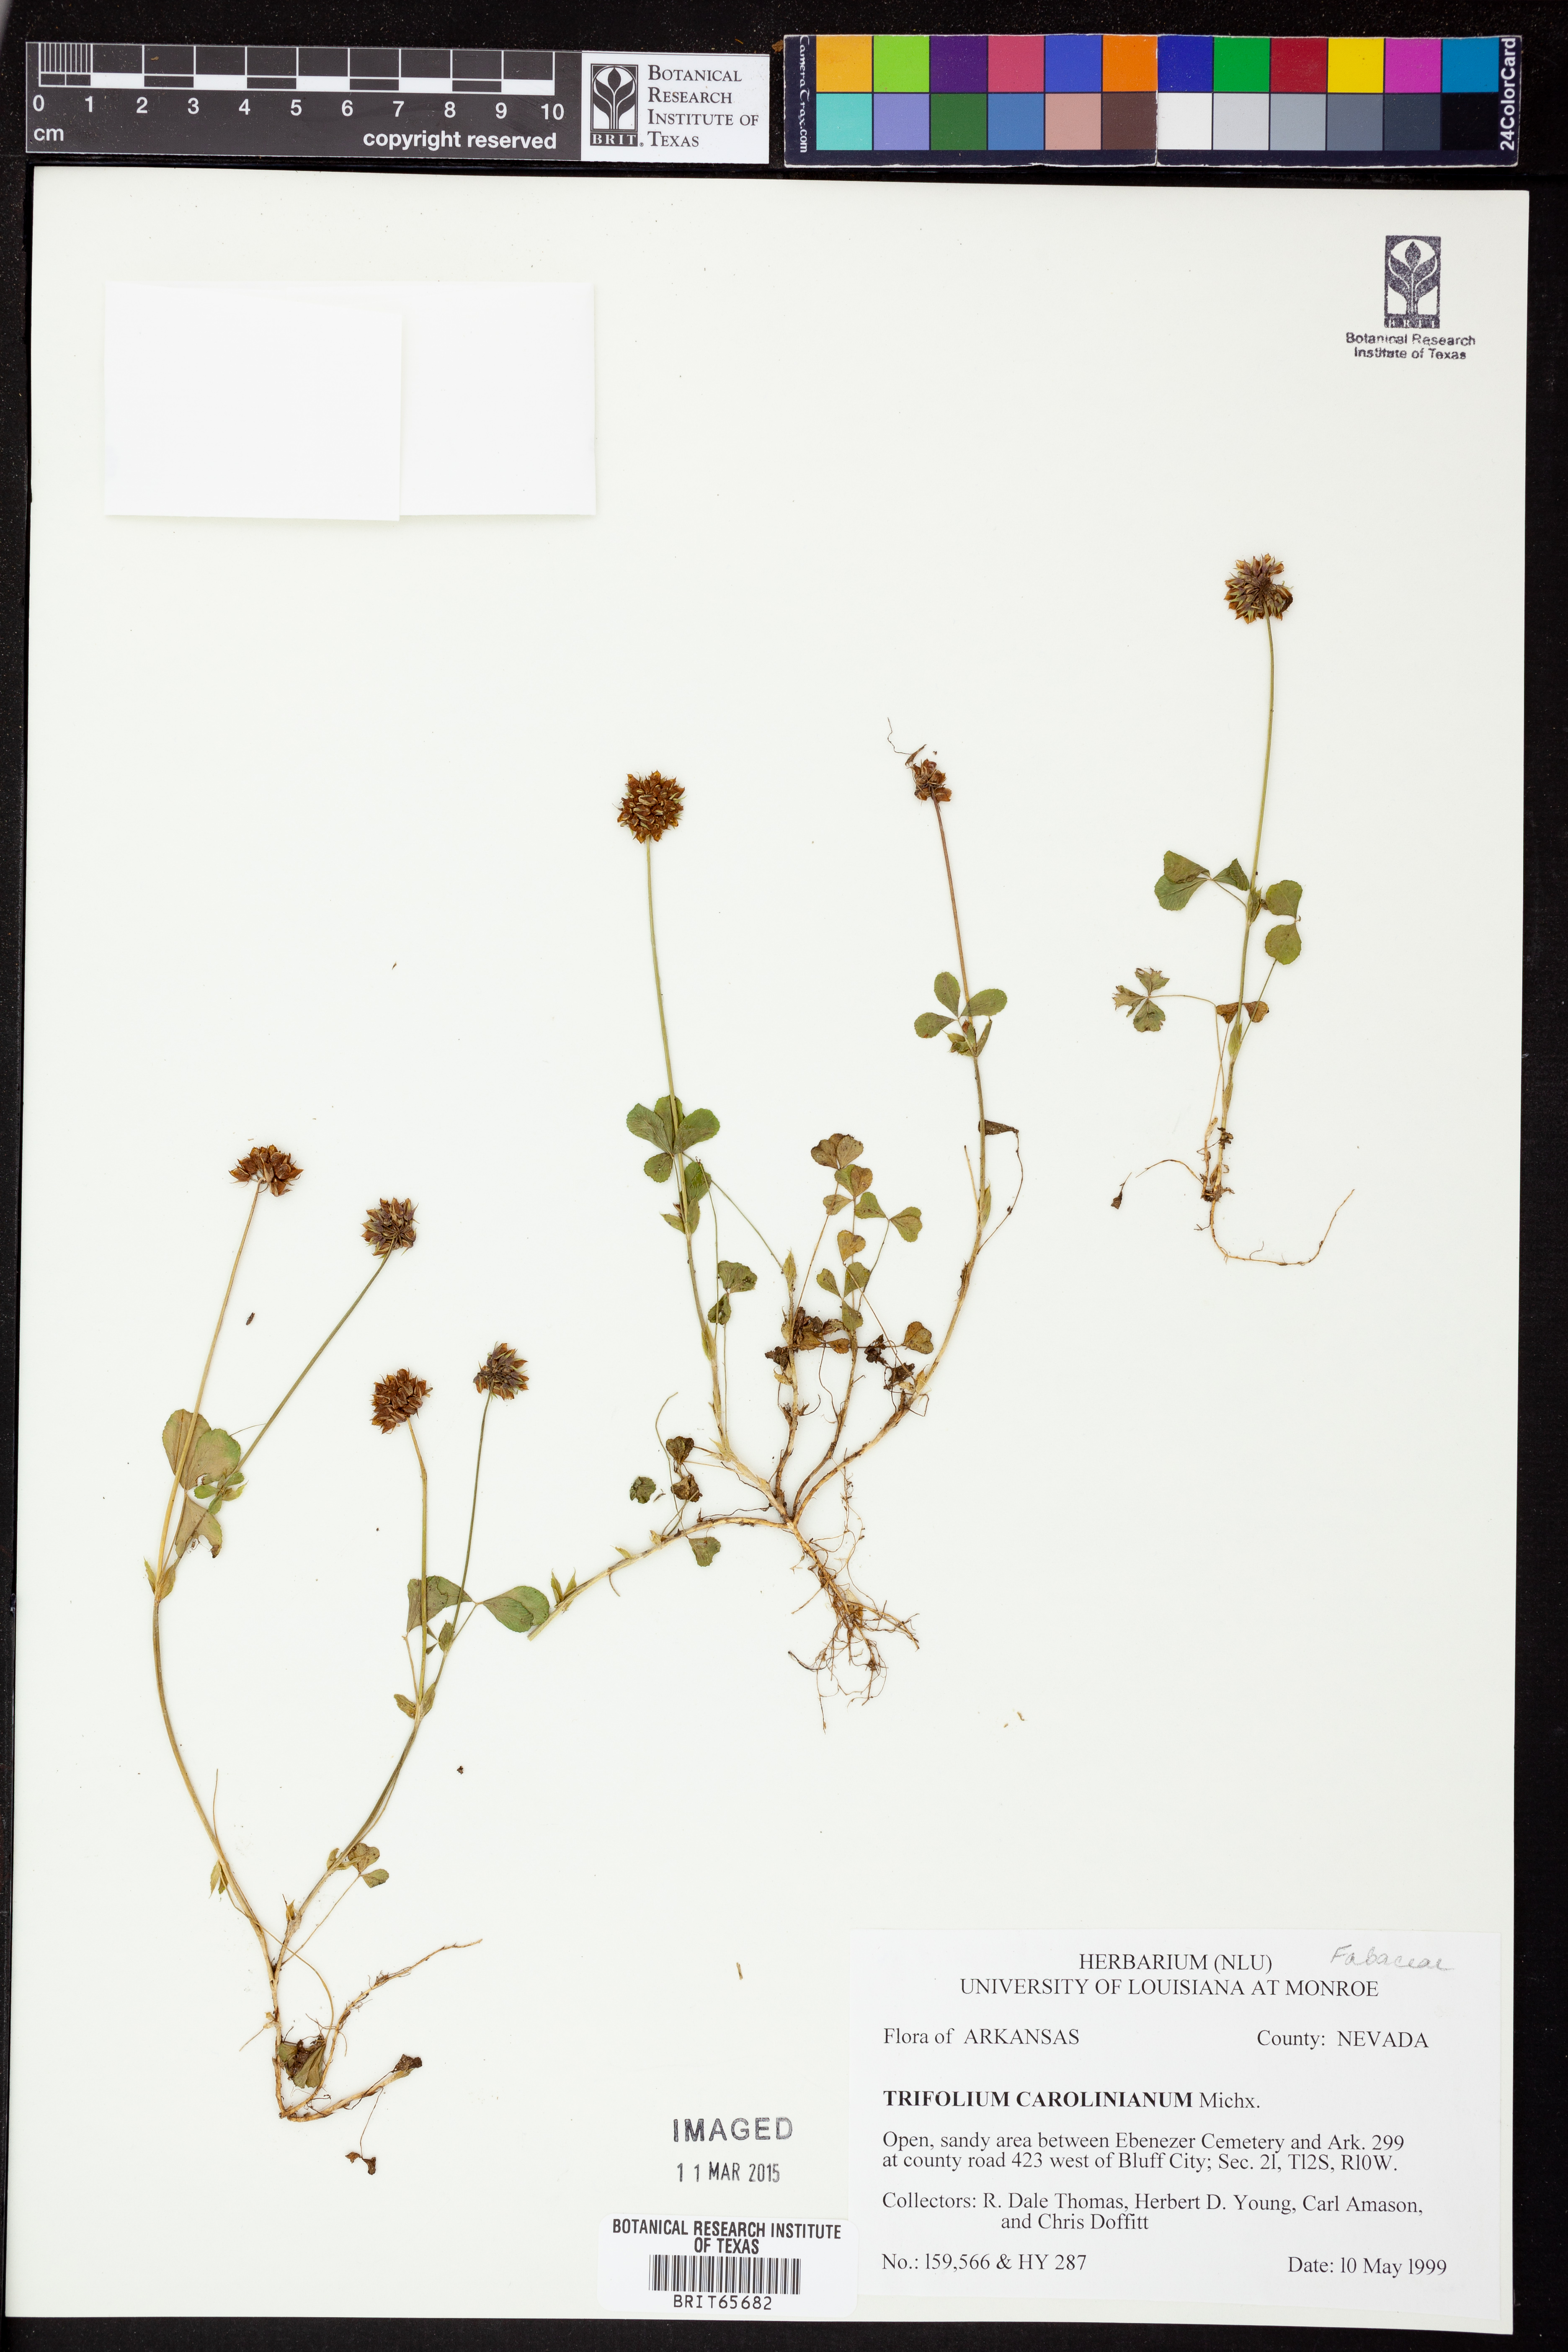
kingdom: Plantae
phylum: Tracheophyta
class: Magnoliopsida
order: Fabales
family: Fabaceae
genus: Trifolium
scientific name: Trifolium carolinianum
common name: Wild white clover
